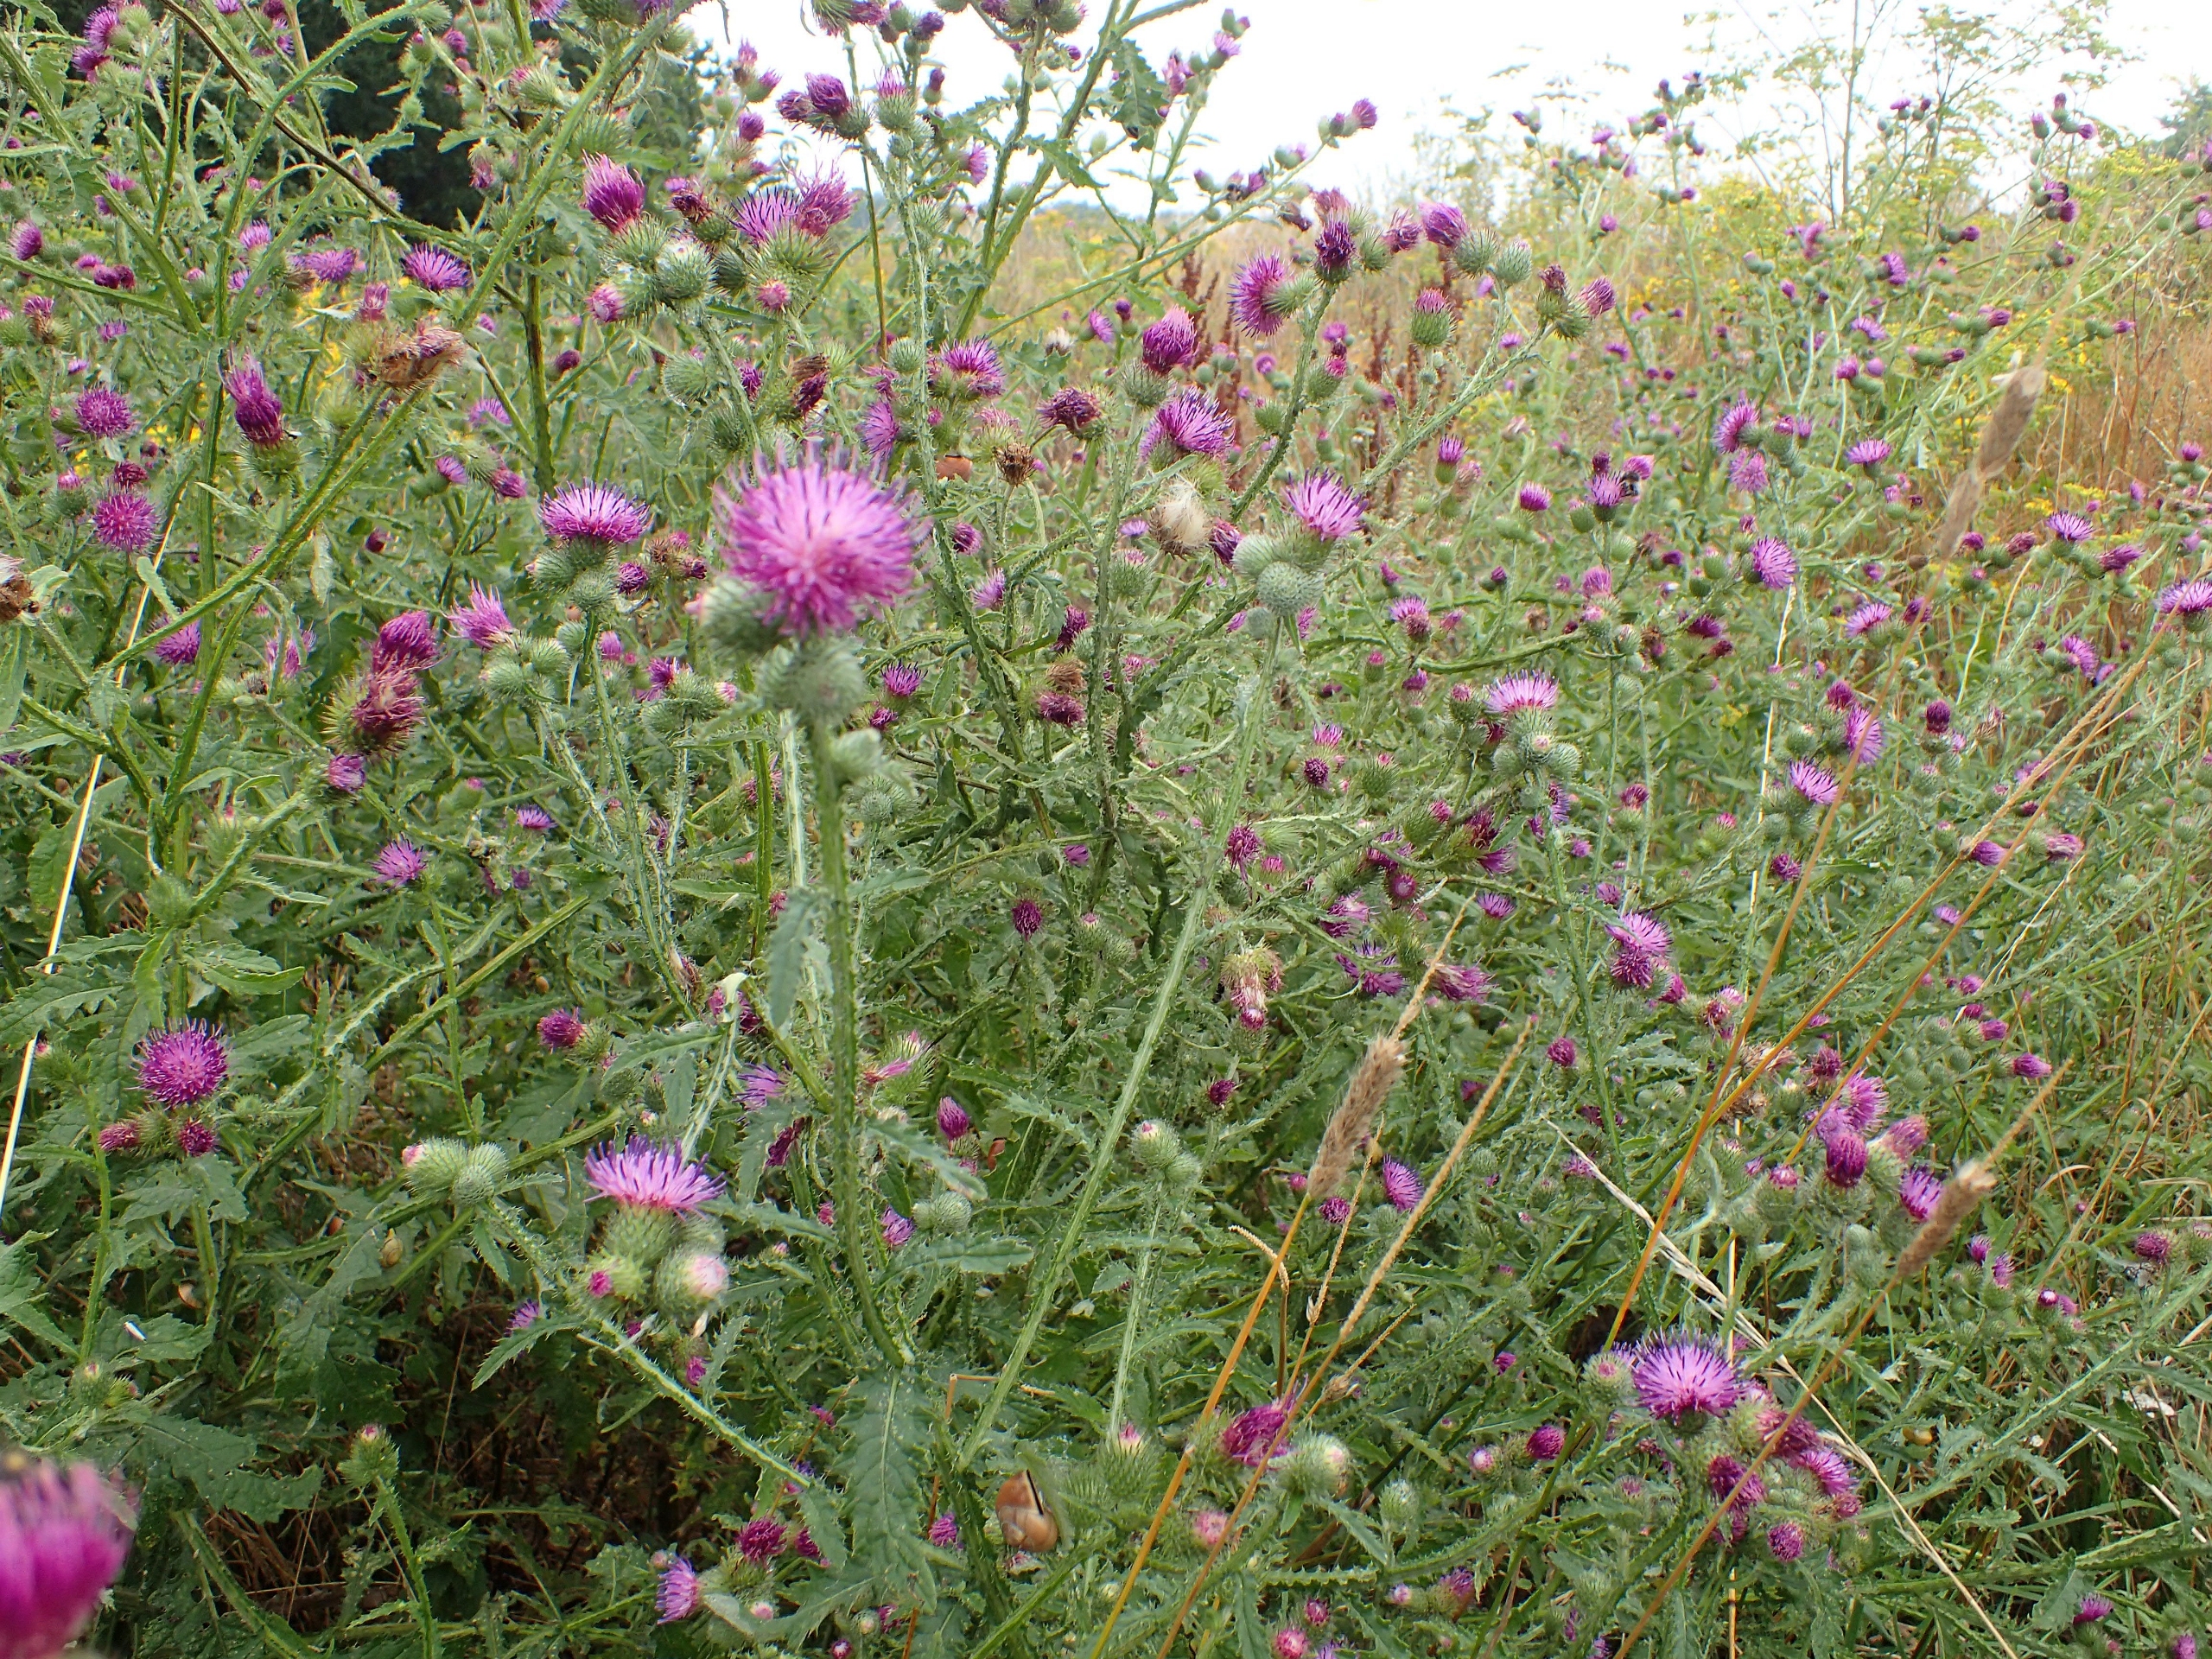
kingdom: Plantae
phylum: Tracheophyta
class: Magnoliopsida
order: Asterales
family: Asteraceae
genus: Carduus
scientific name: Carduus crispus
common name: Kruset tidsel
